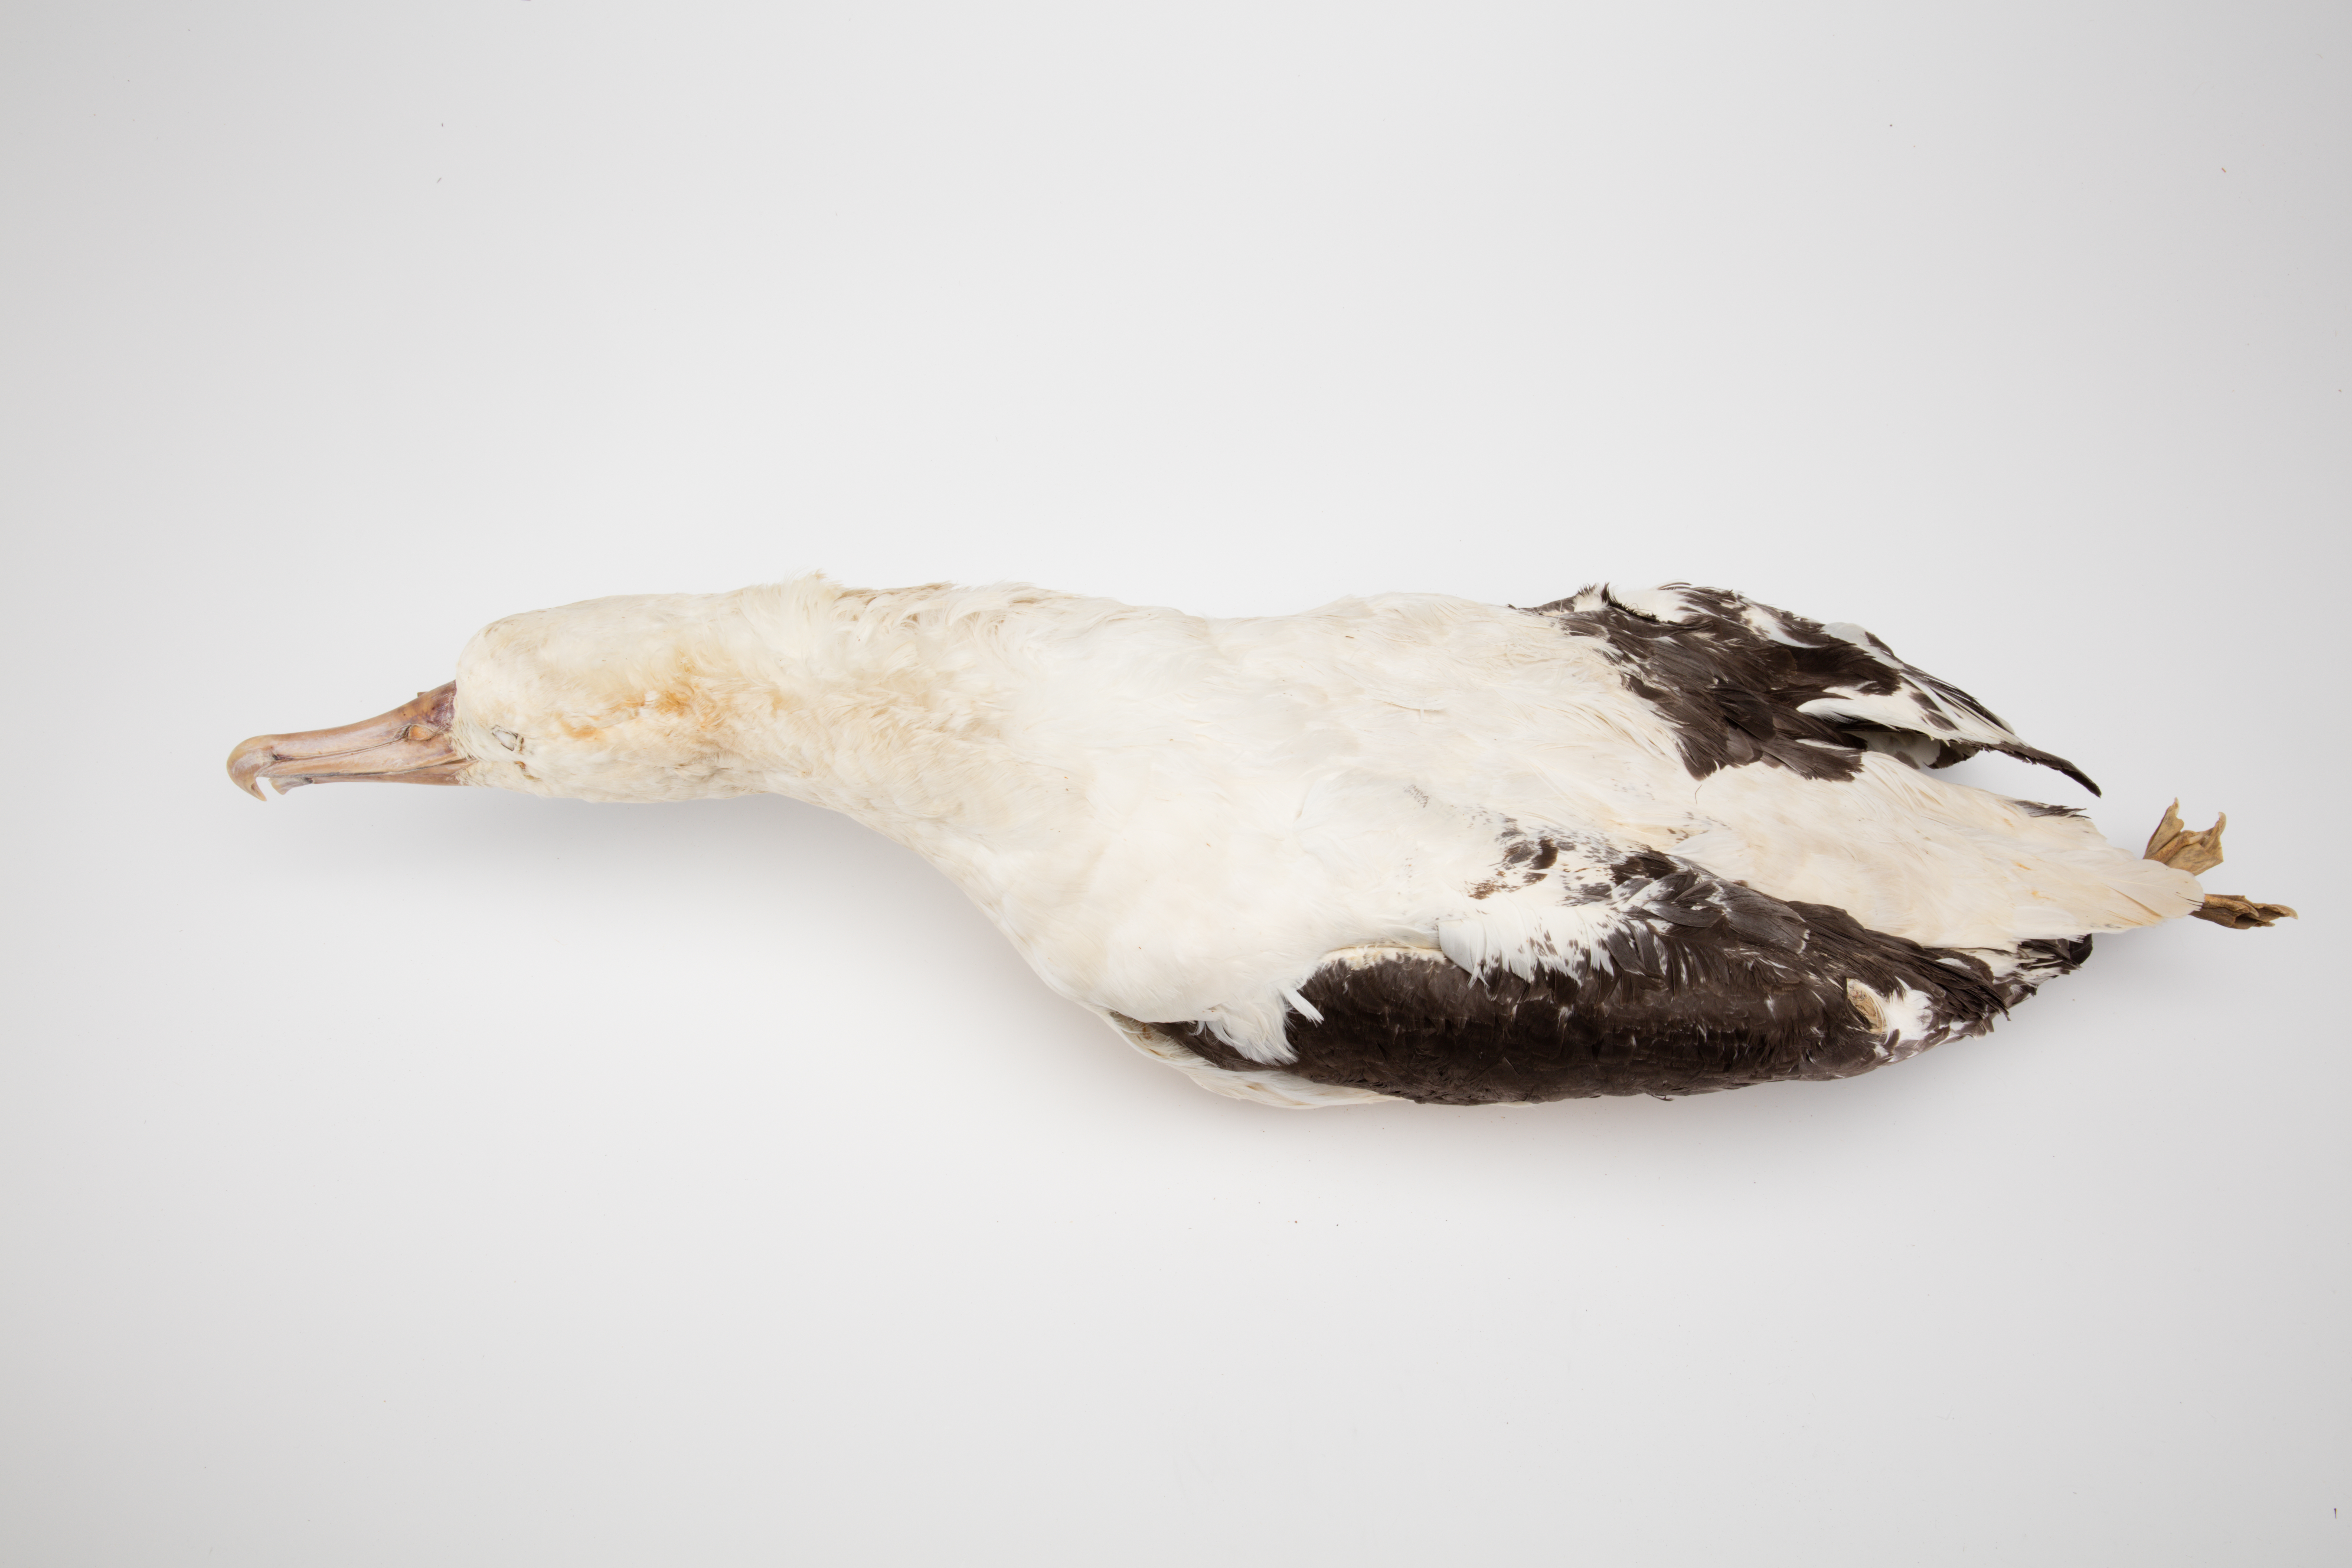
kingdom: Animalia
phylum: Chordata
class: Aves
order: Procellariiformes
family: Diomedeidae
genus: Diomedea
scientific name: Diomedea sanfordi
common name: Northern royal albatross
